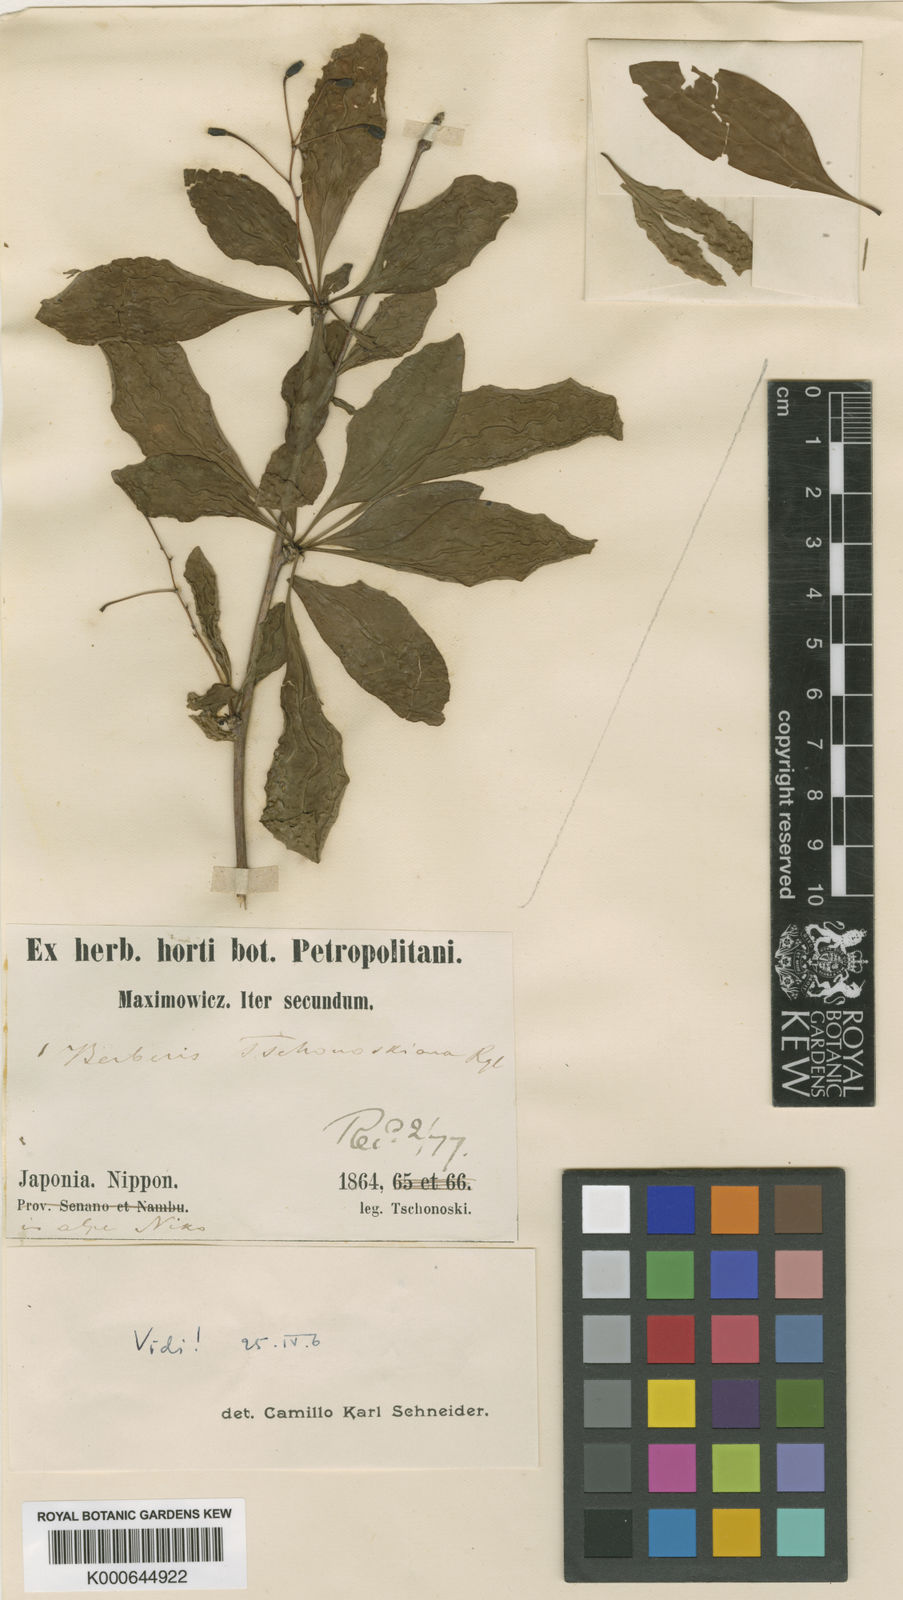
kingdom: Plantae
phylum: Tracheophyta
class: Magnoliopsida
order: Ranunculales
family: Berberidaceae
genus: Berberis
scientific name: Berberis tschonoskyana
